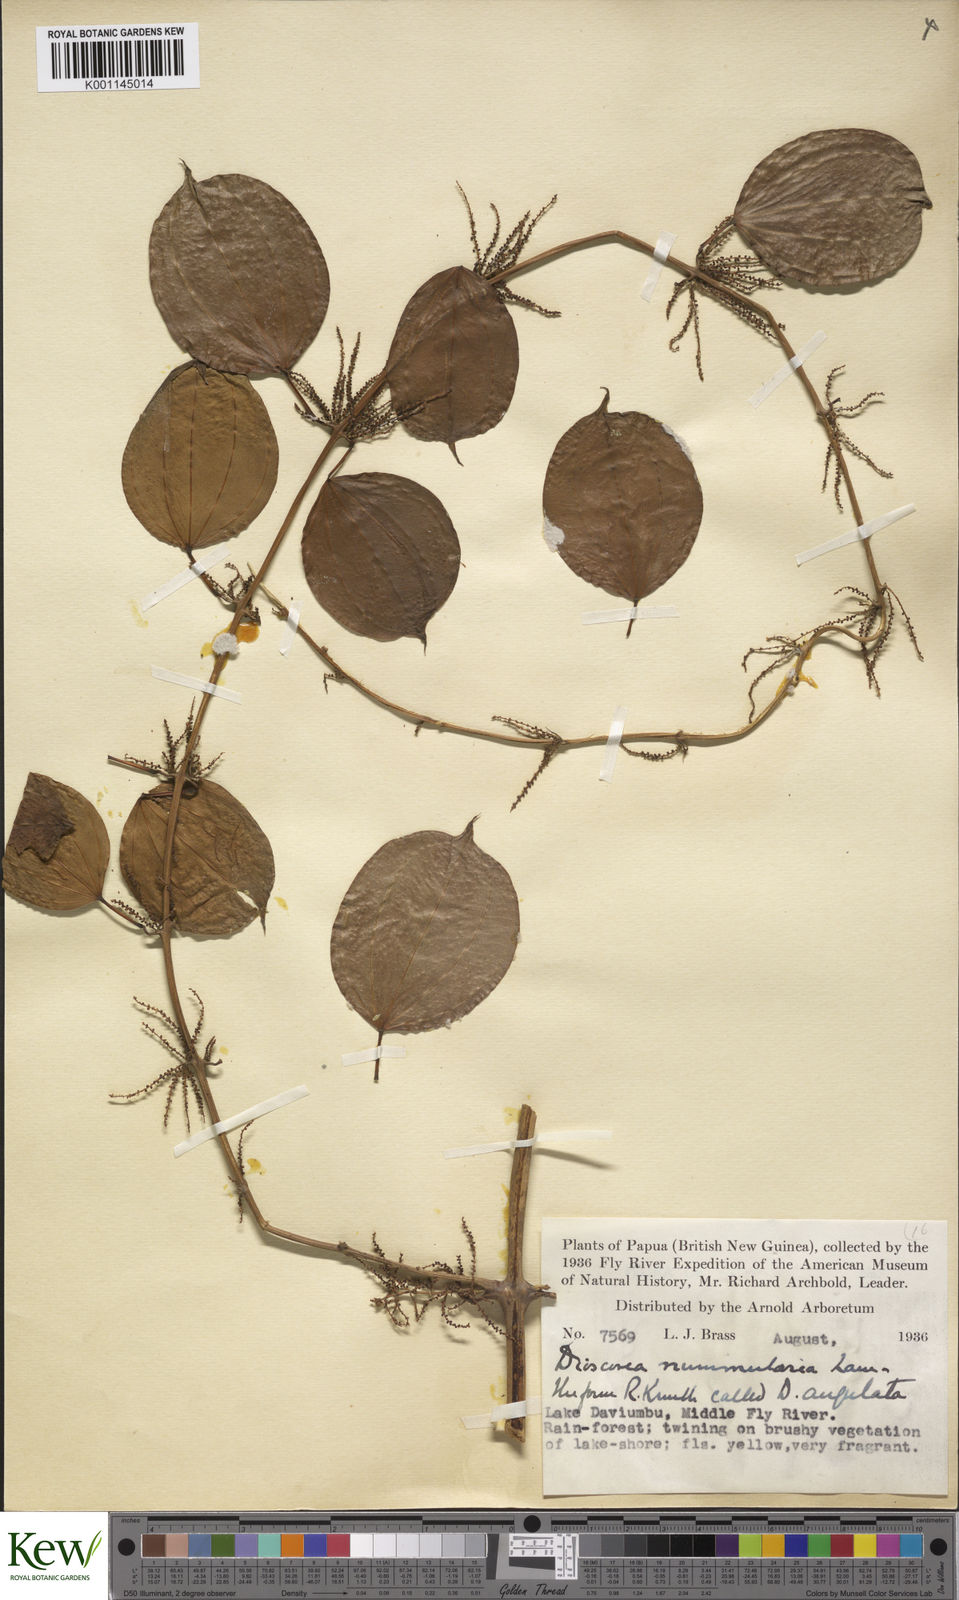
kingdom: Plantae
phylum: Tracheophyta
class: Liliopsida
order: Dioscoreales
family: Dioscoreaceae
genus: Dioscorea
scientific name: Dioscorea nummularia
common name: Pacific yam
